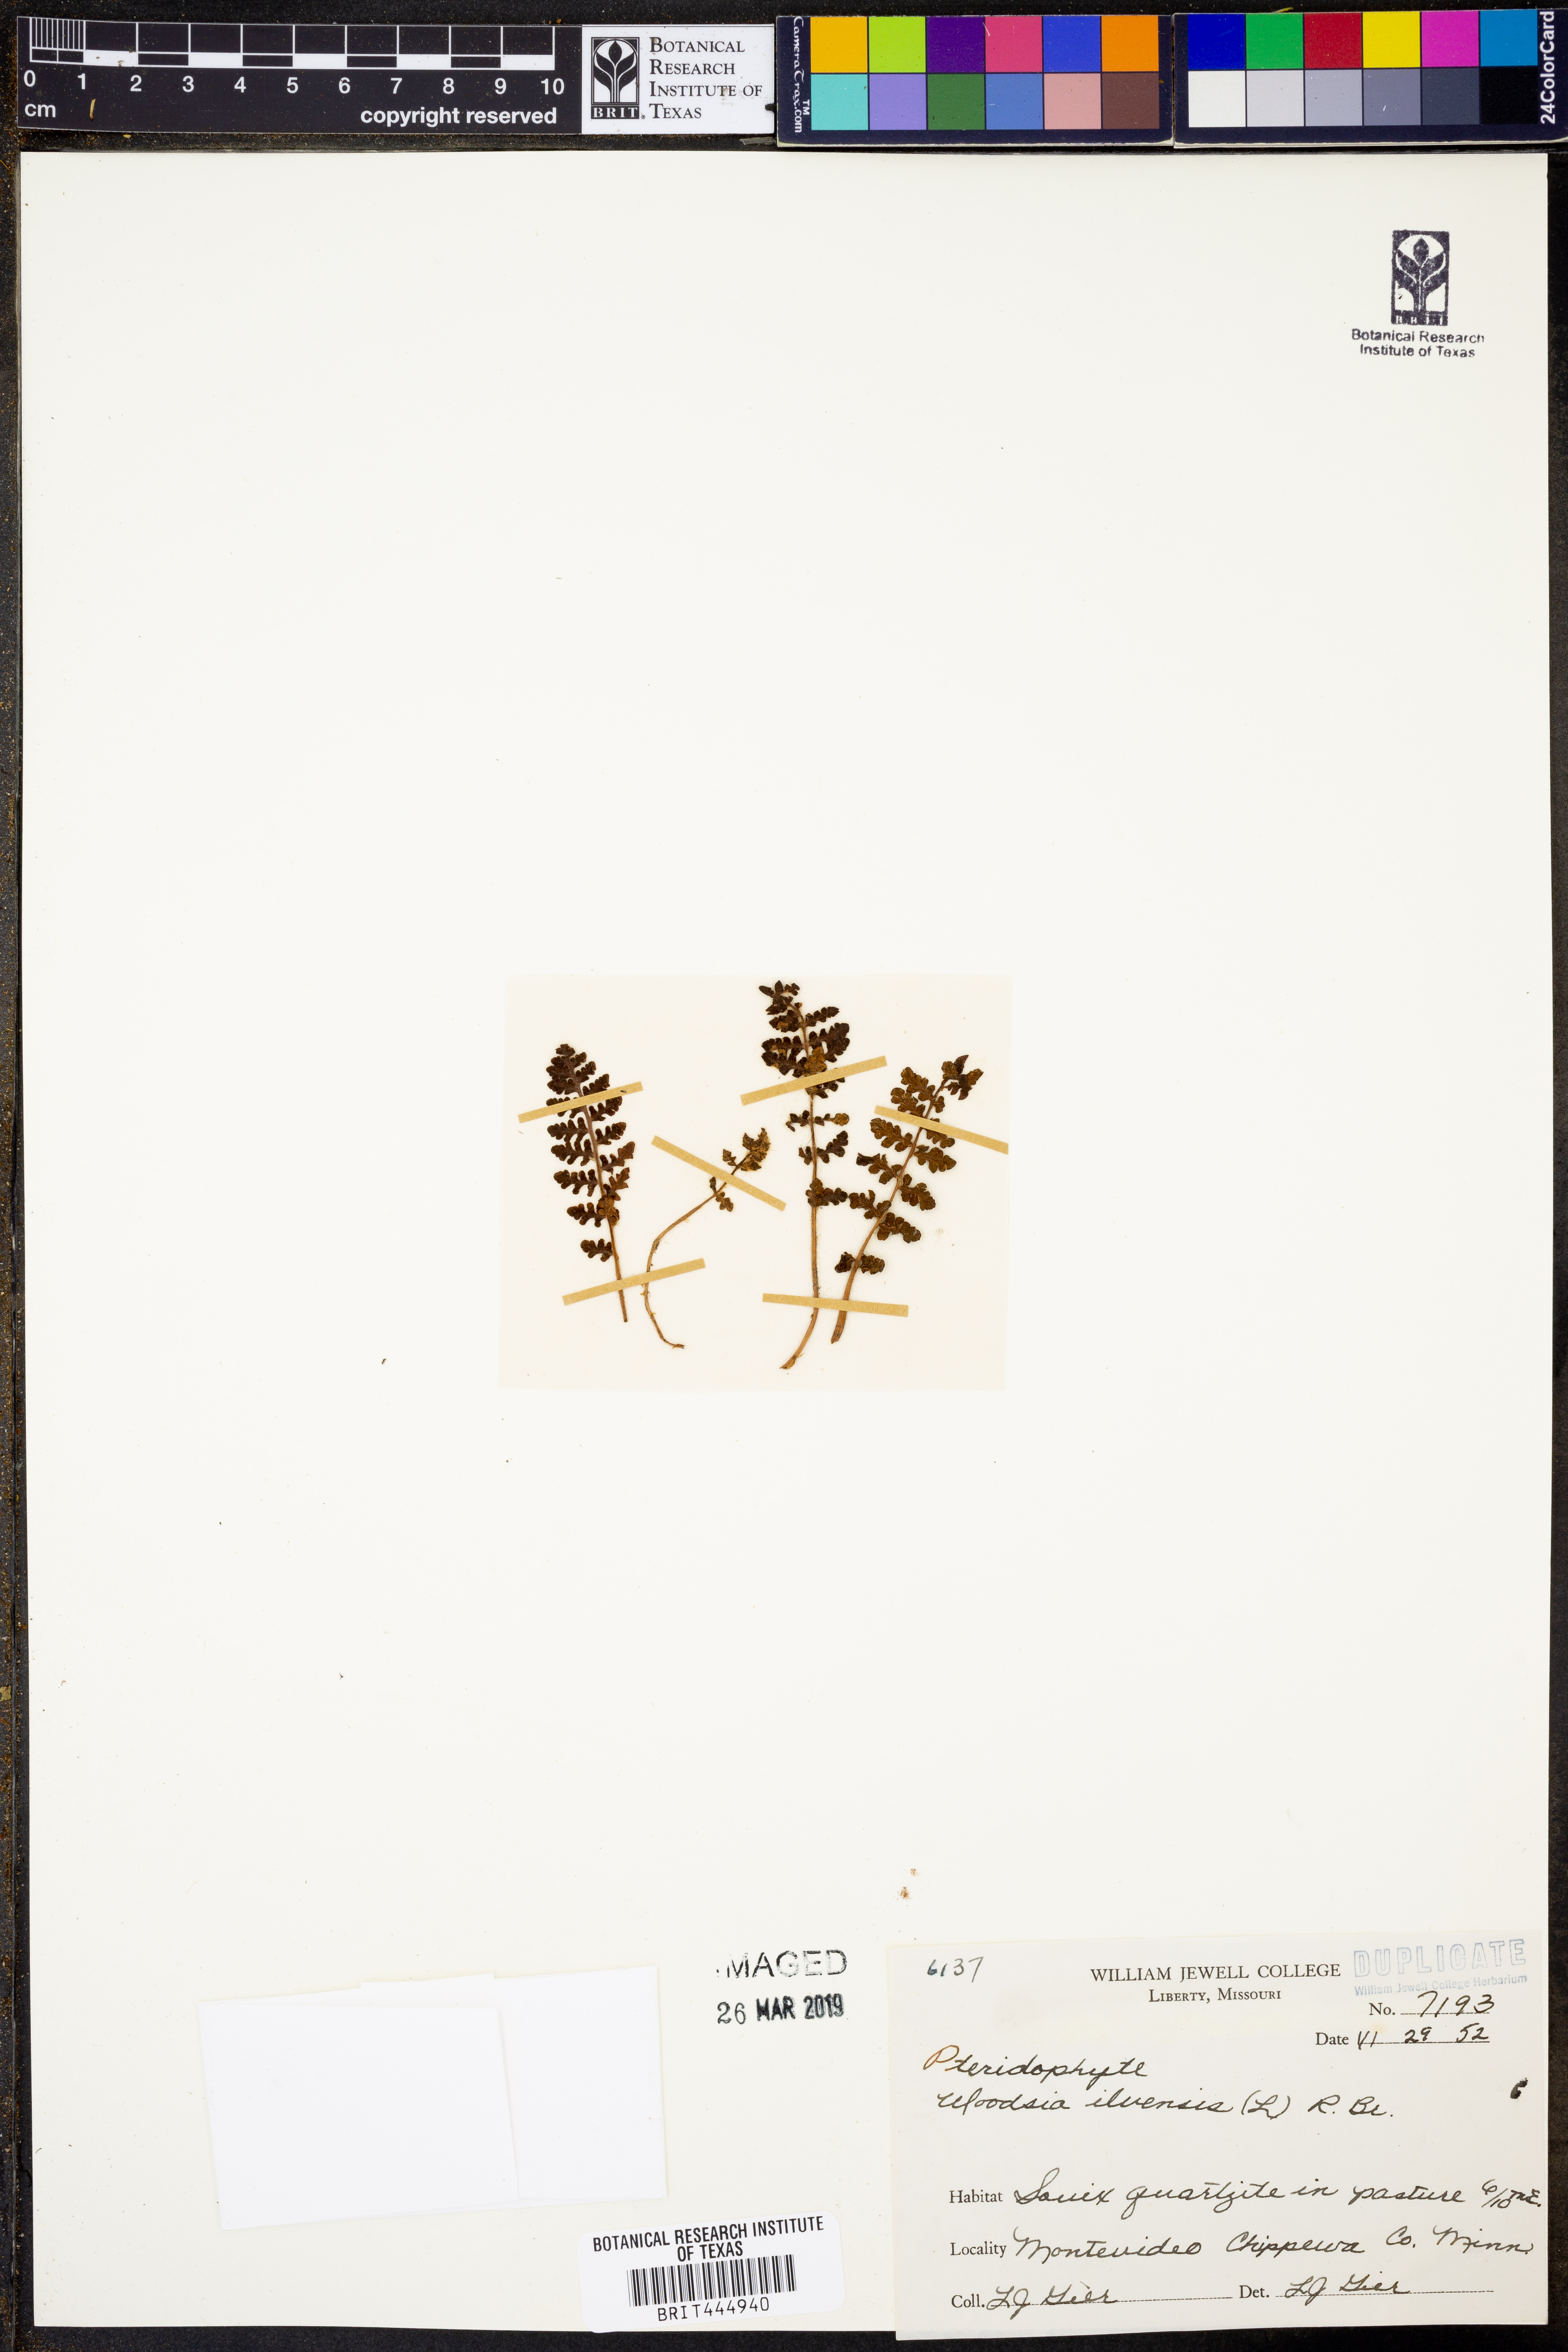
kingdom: Plantae
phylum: Tracheophyta
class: Polypodiopsida
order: Polypodiales
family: Woodsiaceae
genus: Woodsia
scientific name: Woodsia ilvensis
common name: Fragrant woodsia
